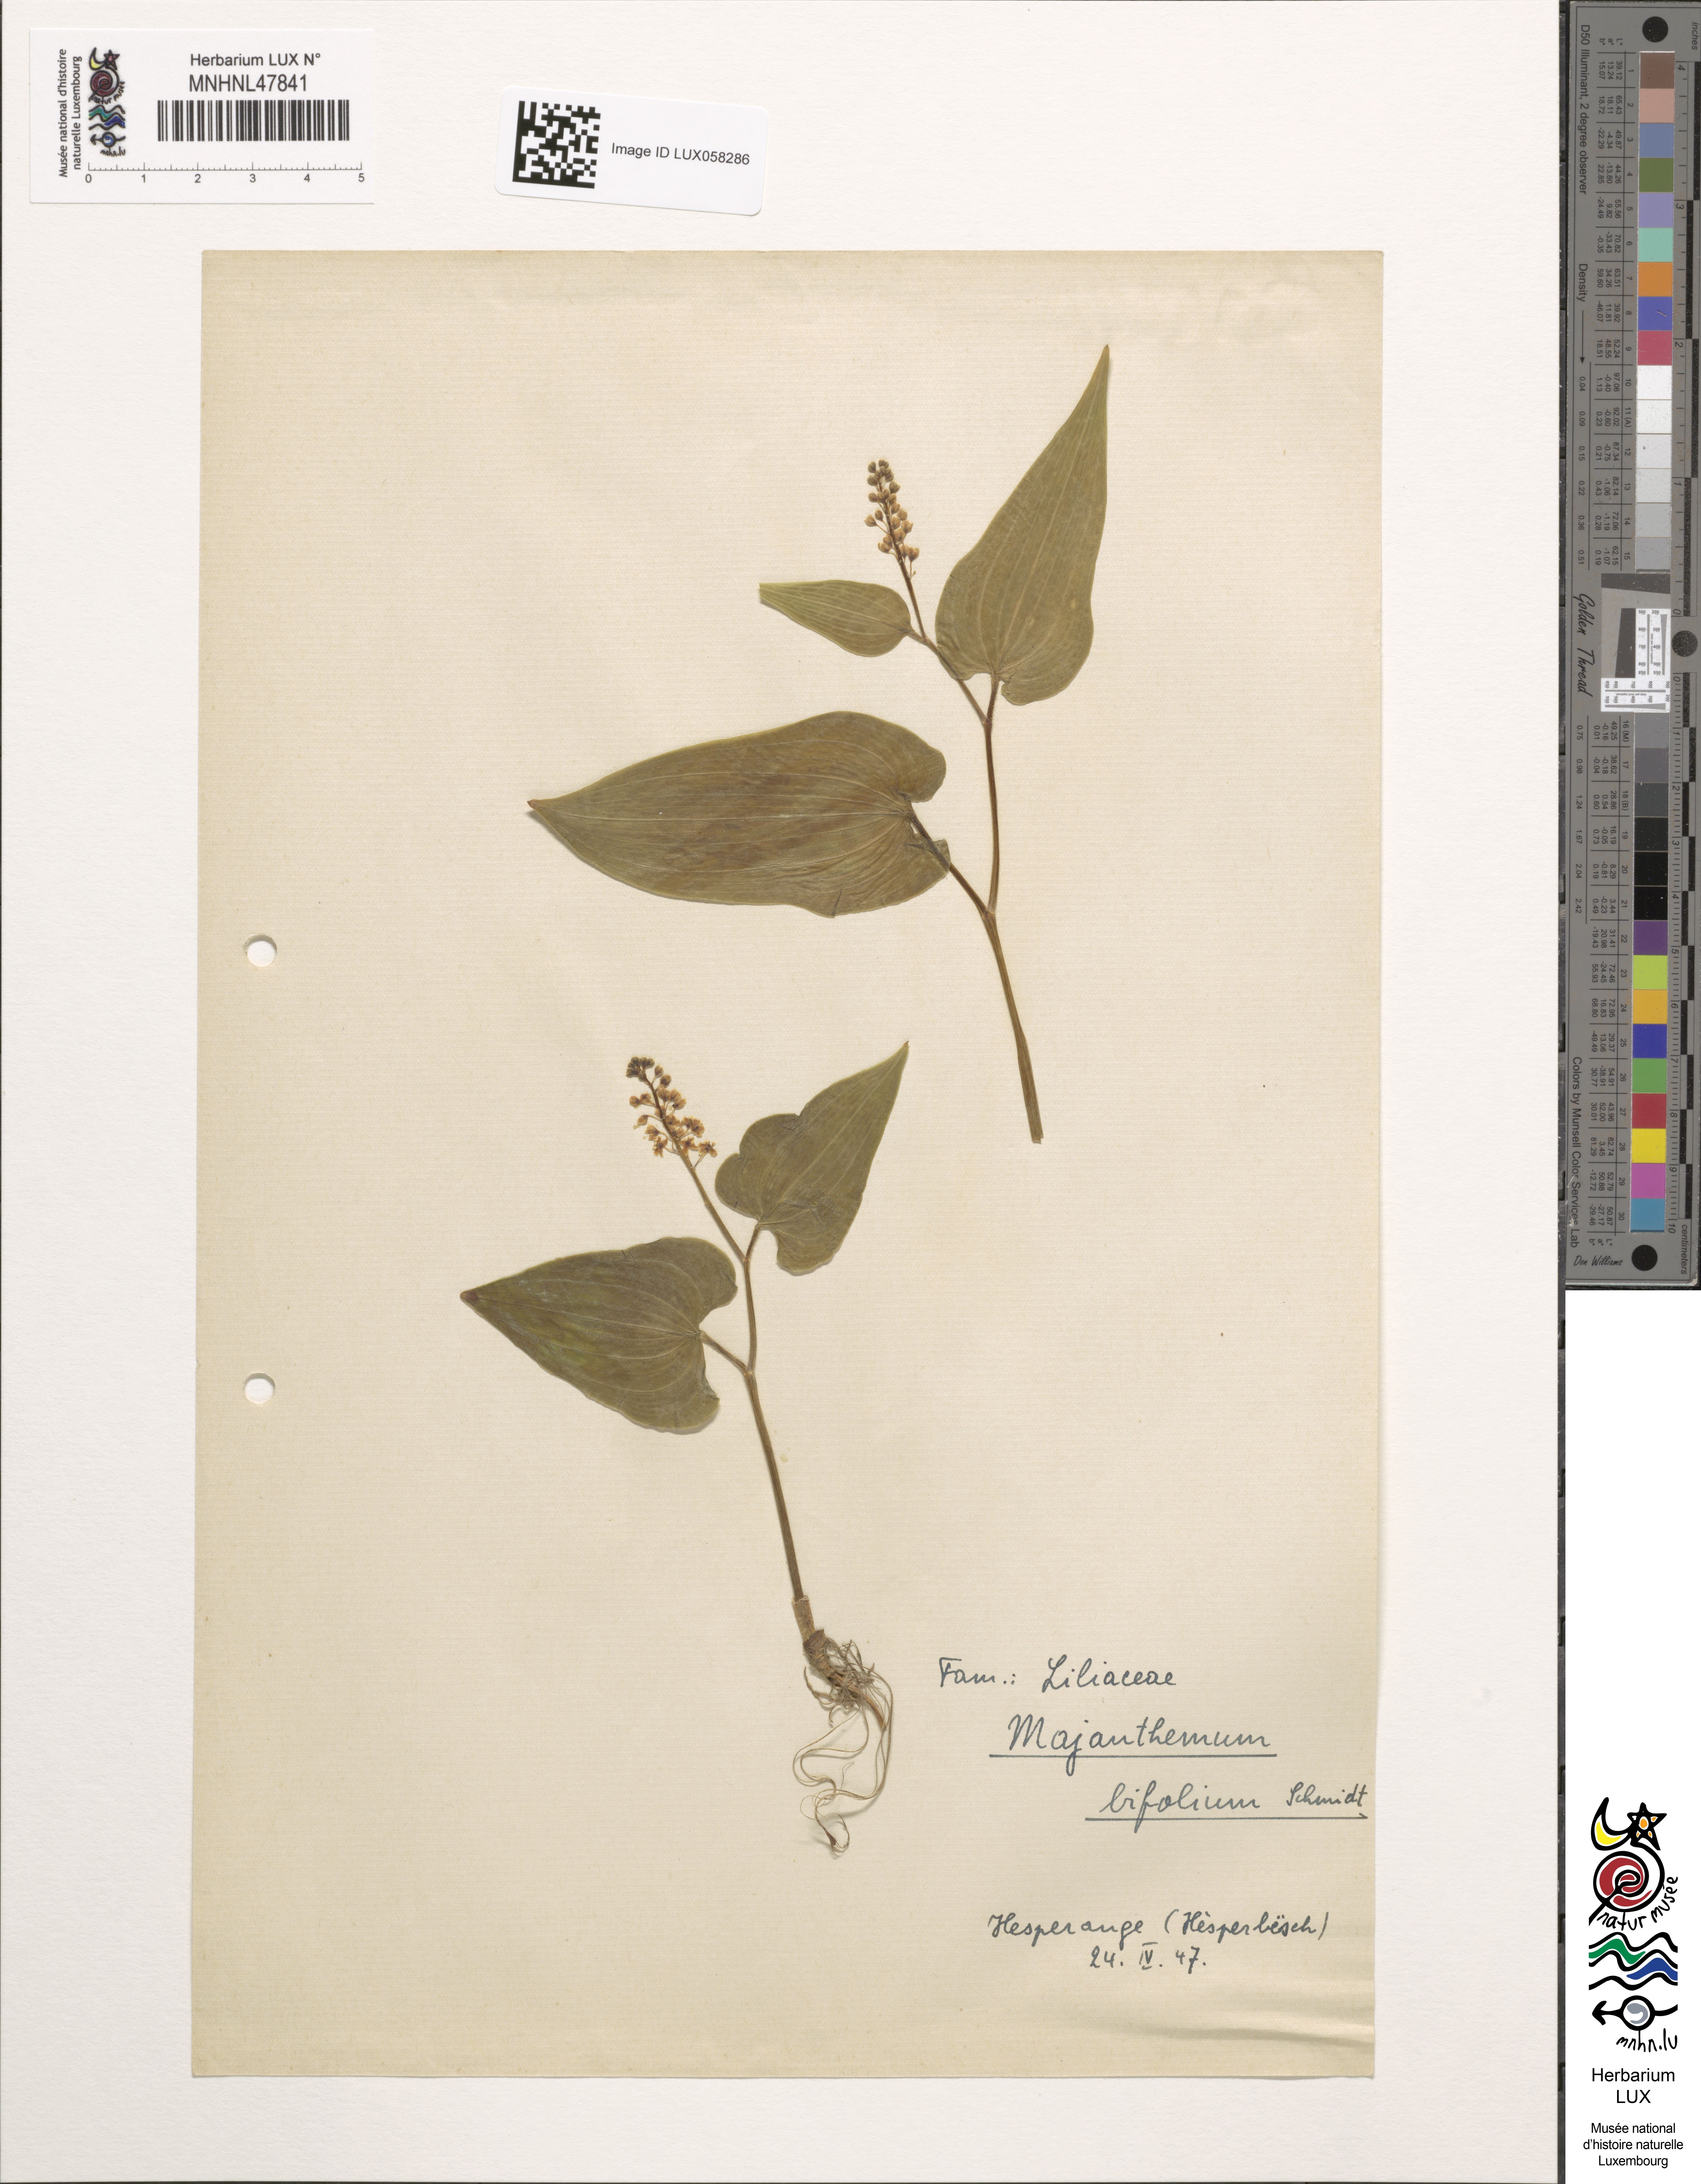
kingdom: Plantae
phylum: Tracheophyta
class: Liliopsida
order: Asparagales
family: Asparagaceae
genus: Maianthemum
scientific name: Maianthemum bifolium
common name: May lily
